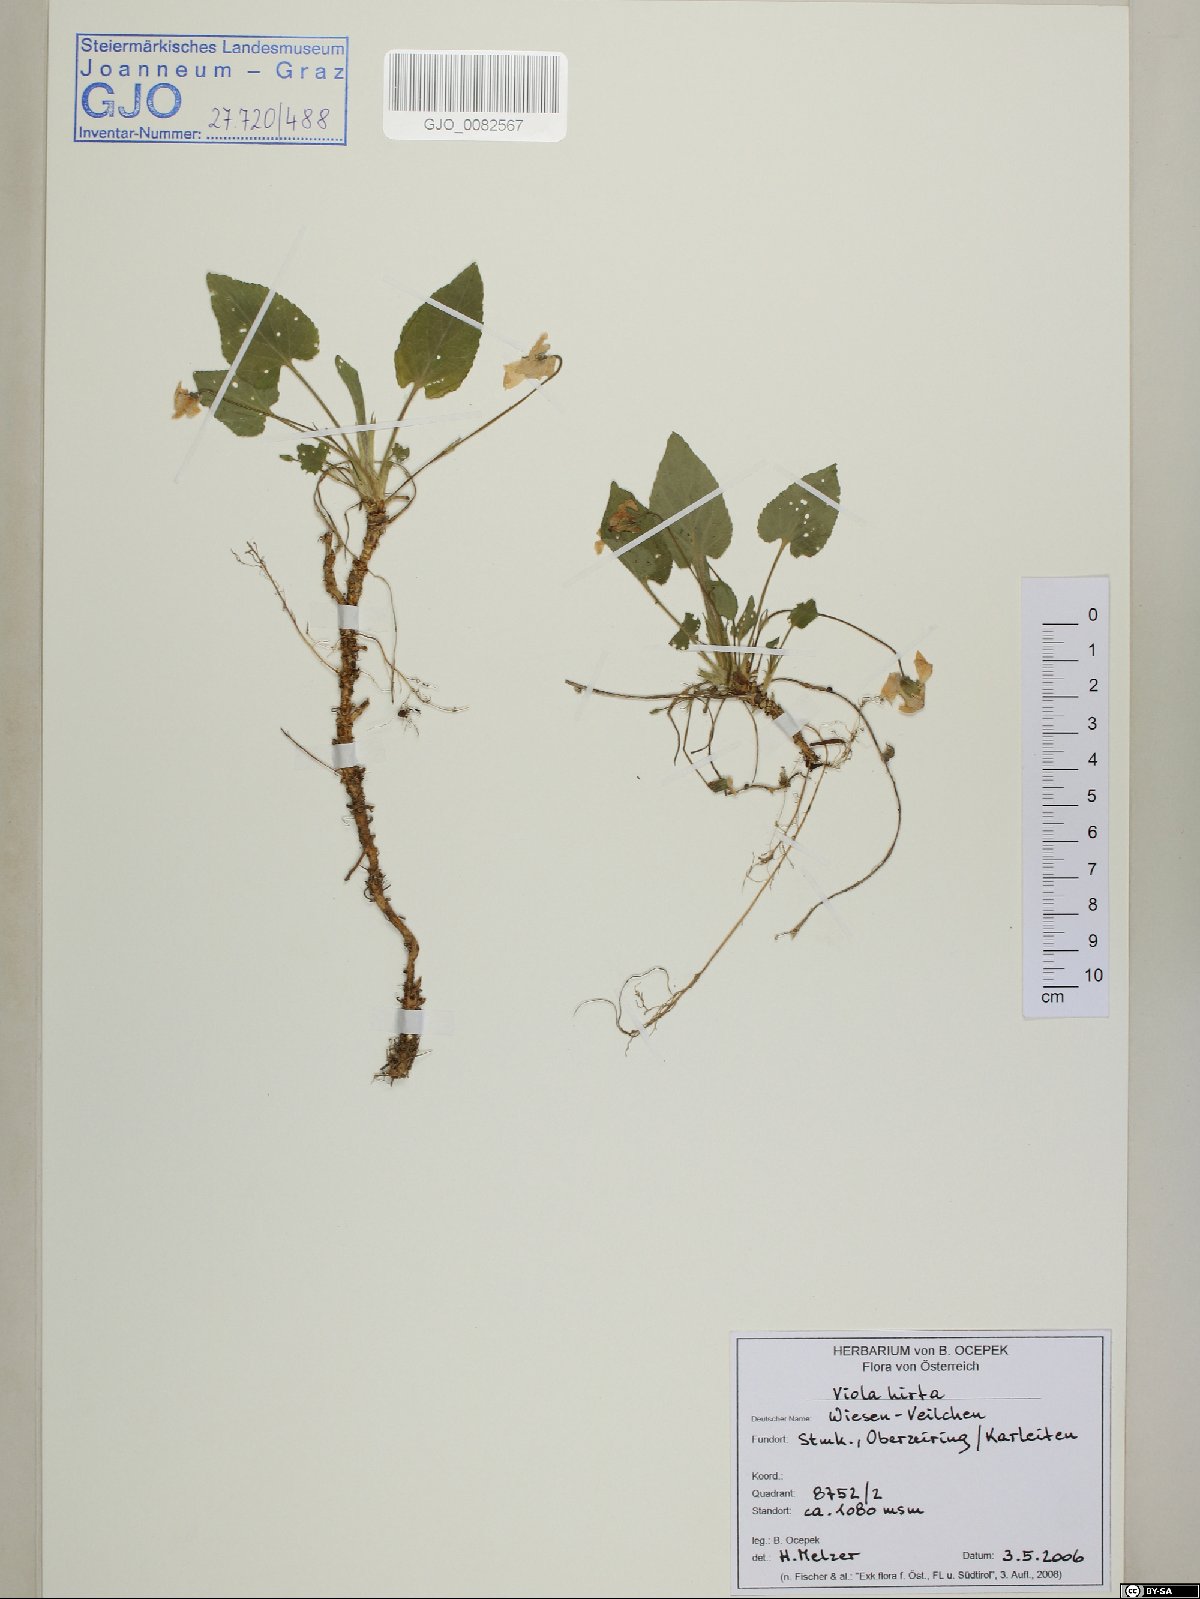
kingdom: Plantae
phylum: Tracheophyta
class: Magnoliopsida
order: Malpighiales
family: Violaceae
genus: Viola
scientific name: Viola hirta
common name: Hairy violet
